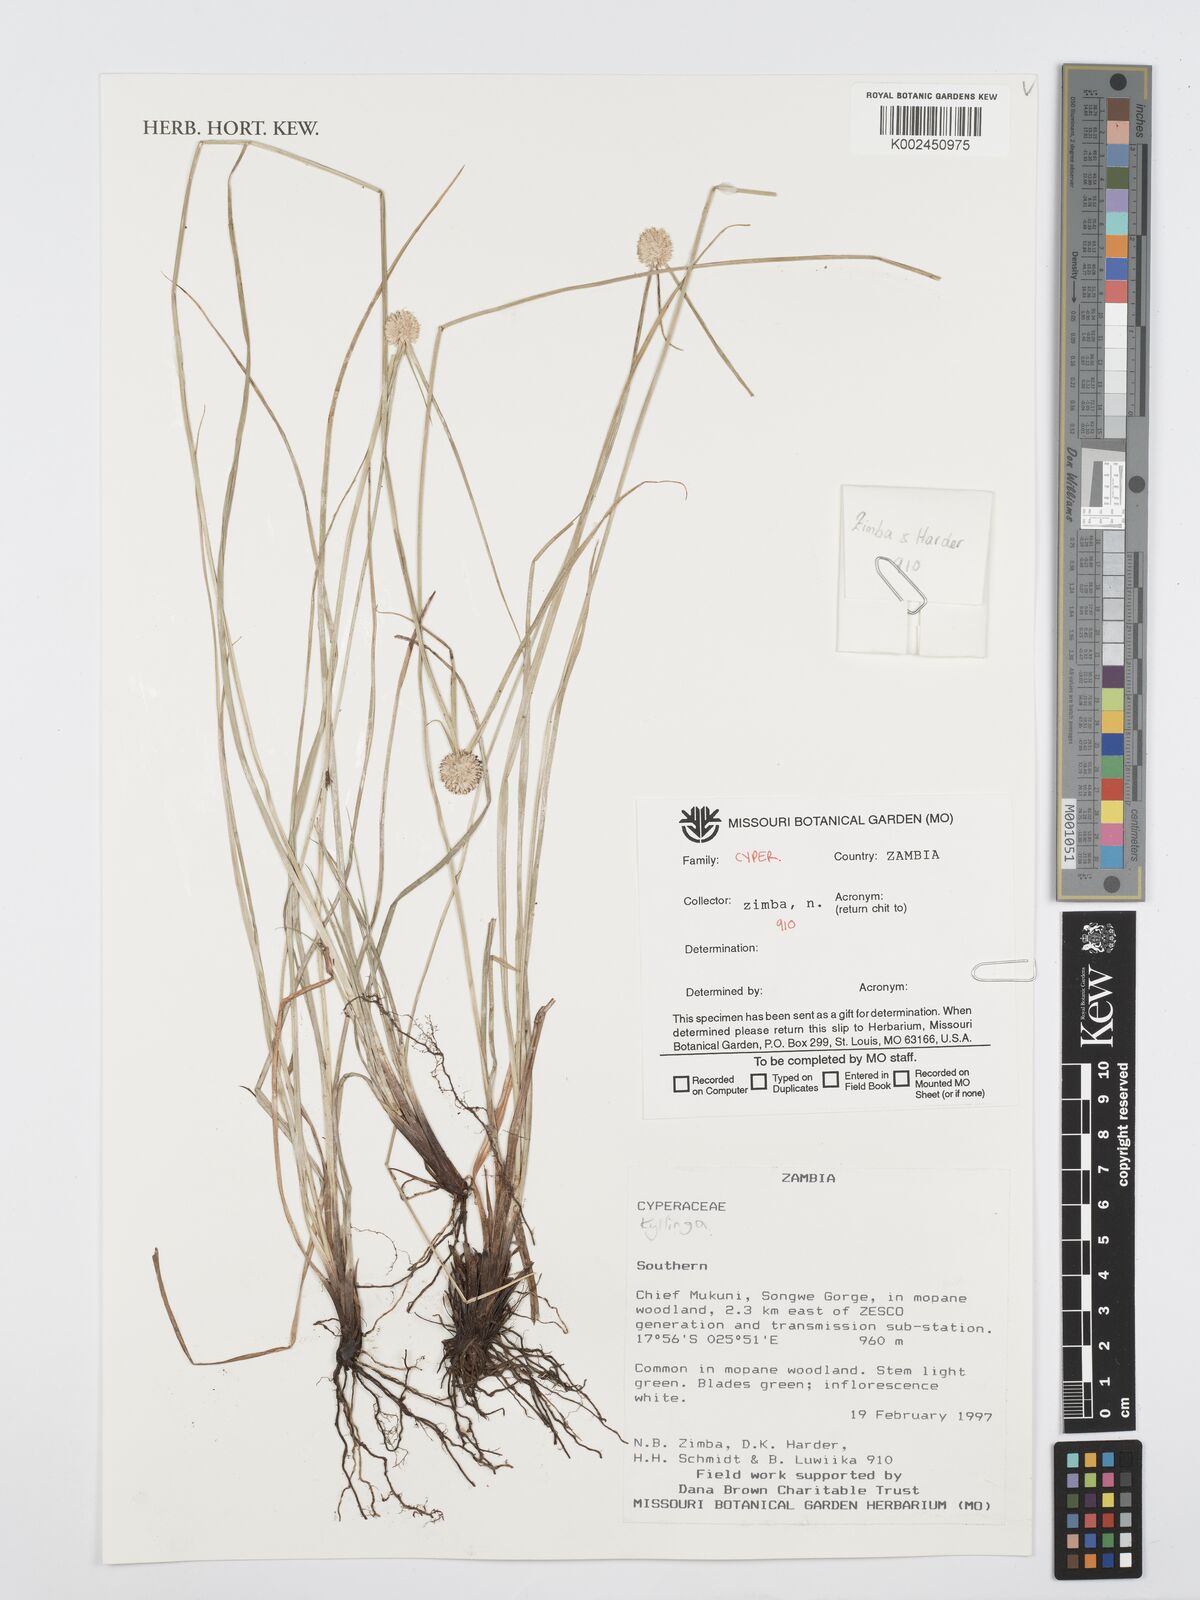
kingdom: Plantae
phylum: Tracheophyta
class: Liliopsida
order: Poales
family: Cyperaceae
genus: Cyperus
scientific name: Cyperus
